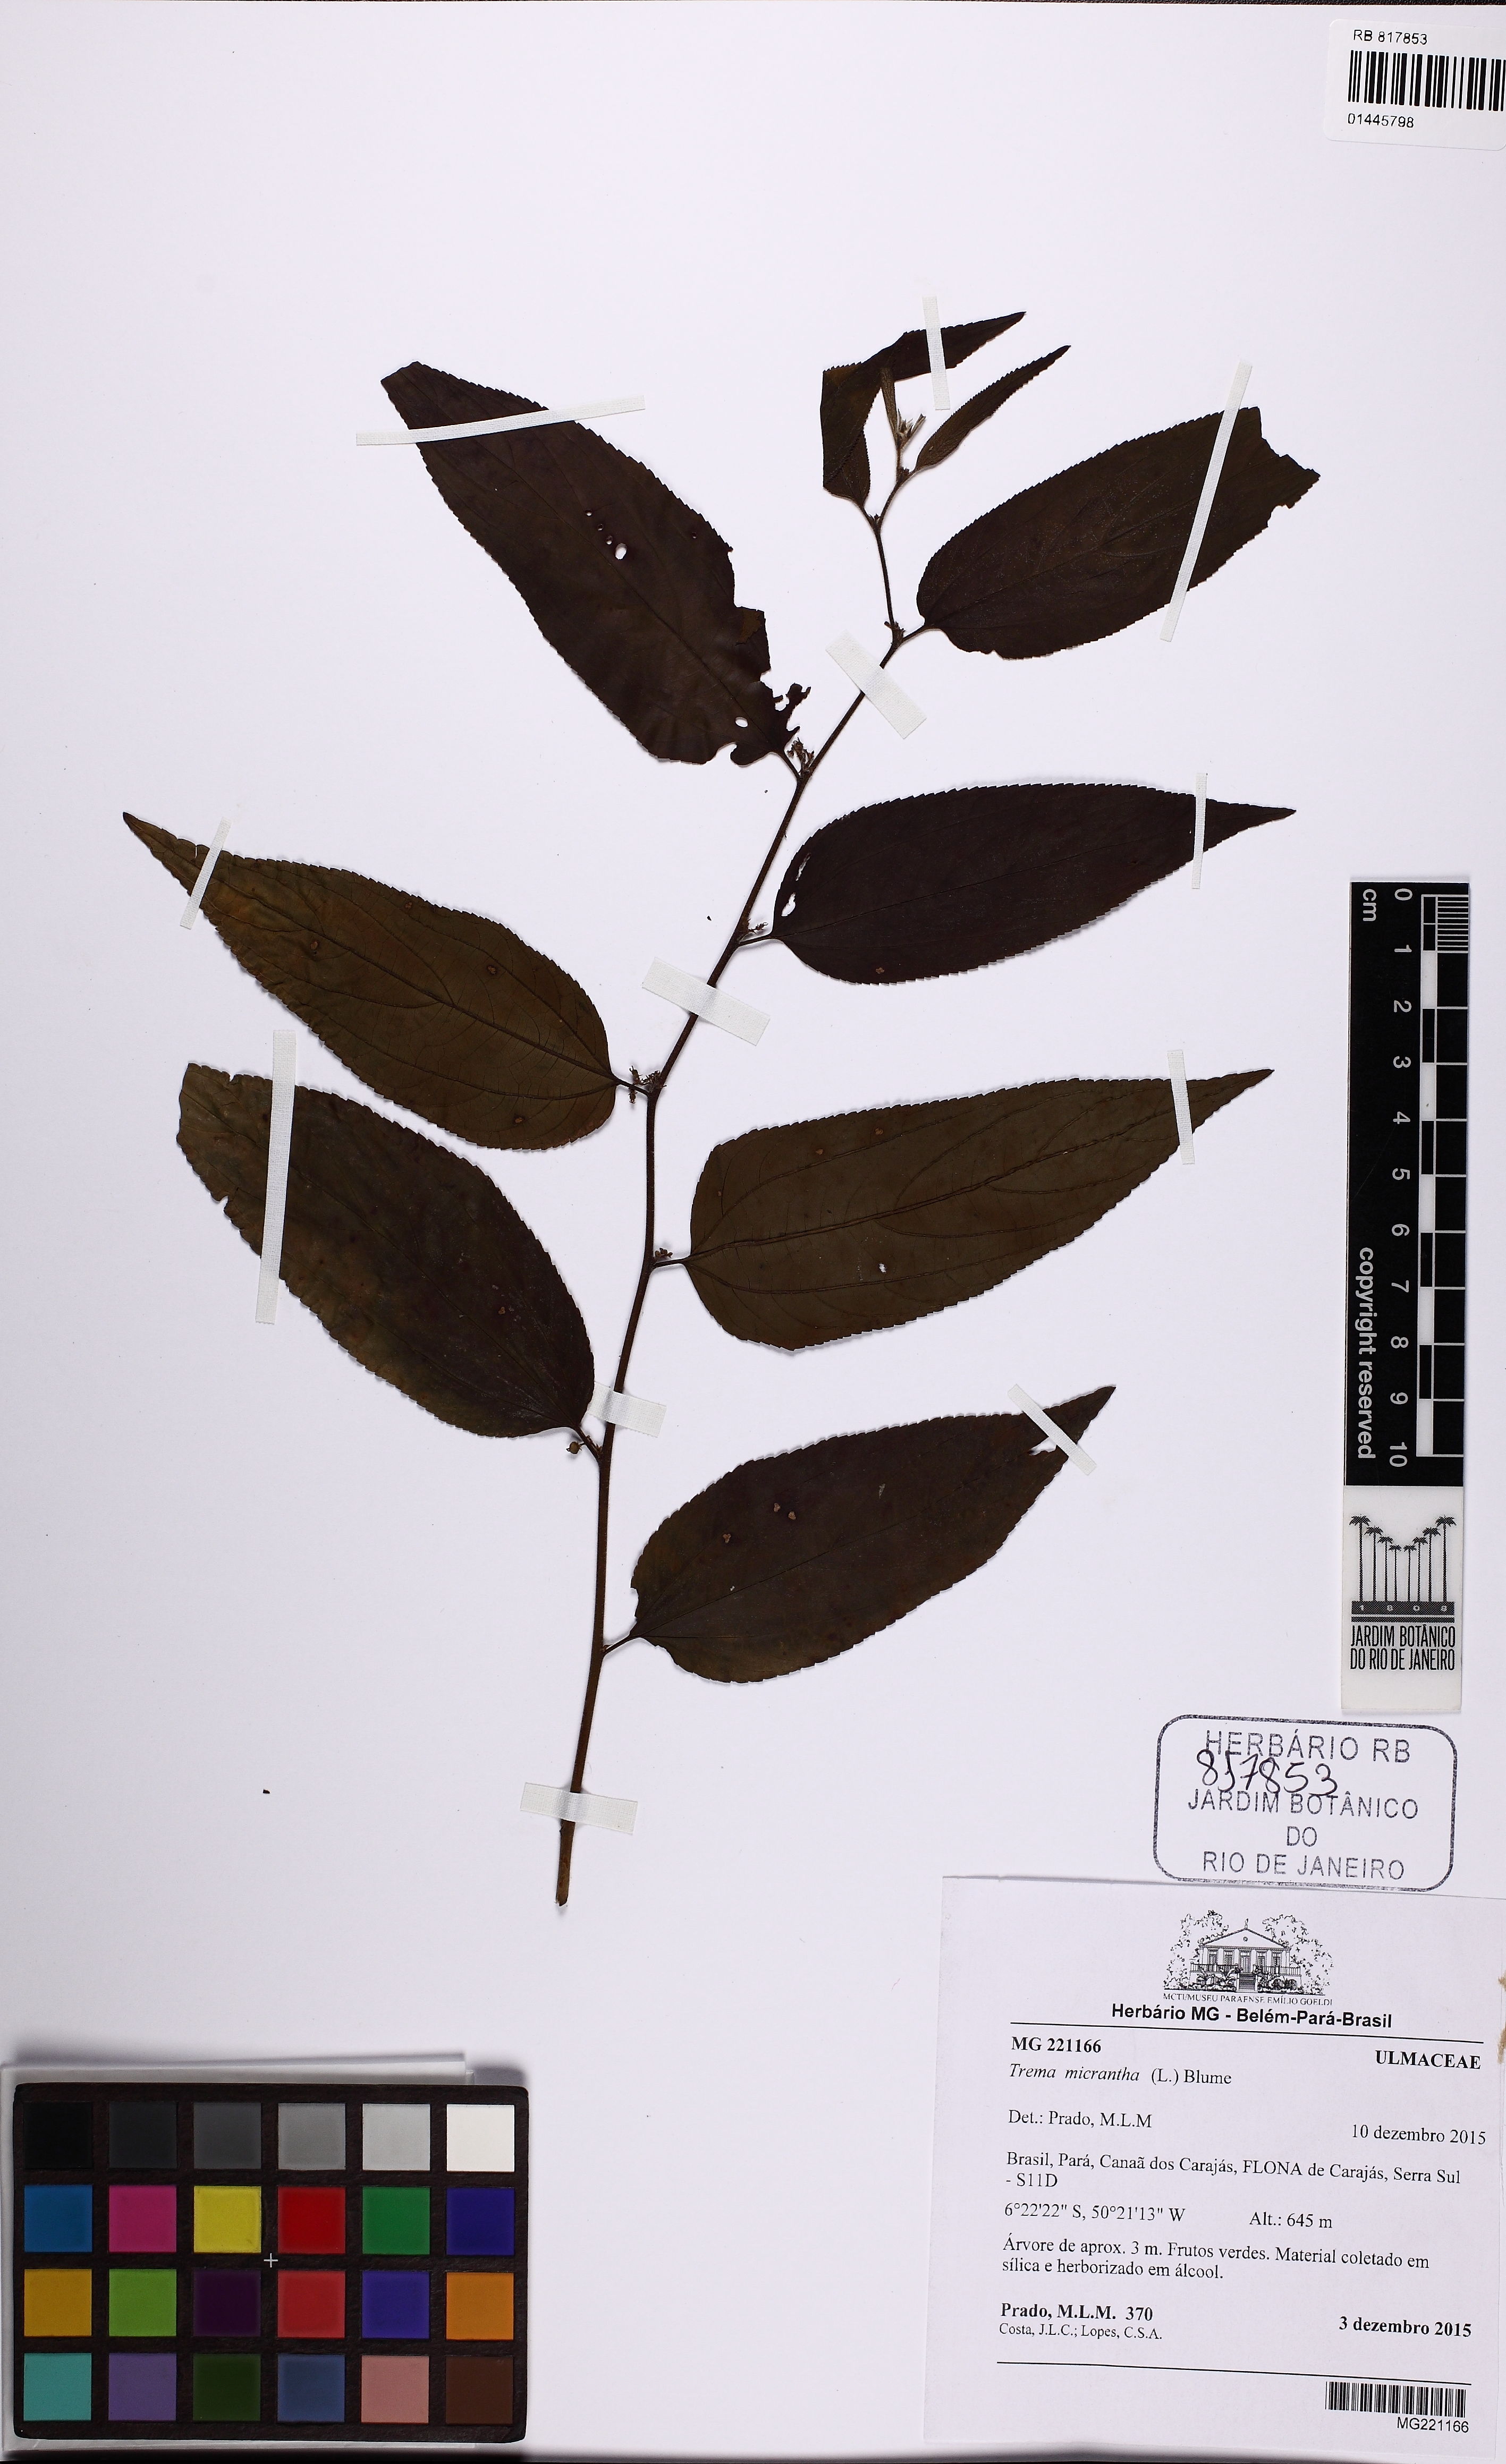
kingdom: Plantae
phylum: Tracheophyta
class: Magnoliopsida
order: Rosales
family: Cannabaceae
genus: Trema
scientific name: Trema micranthum
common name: Jamaican nettletree
